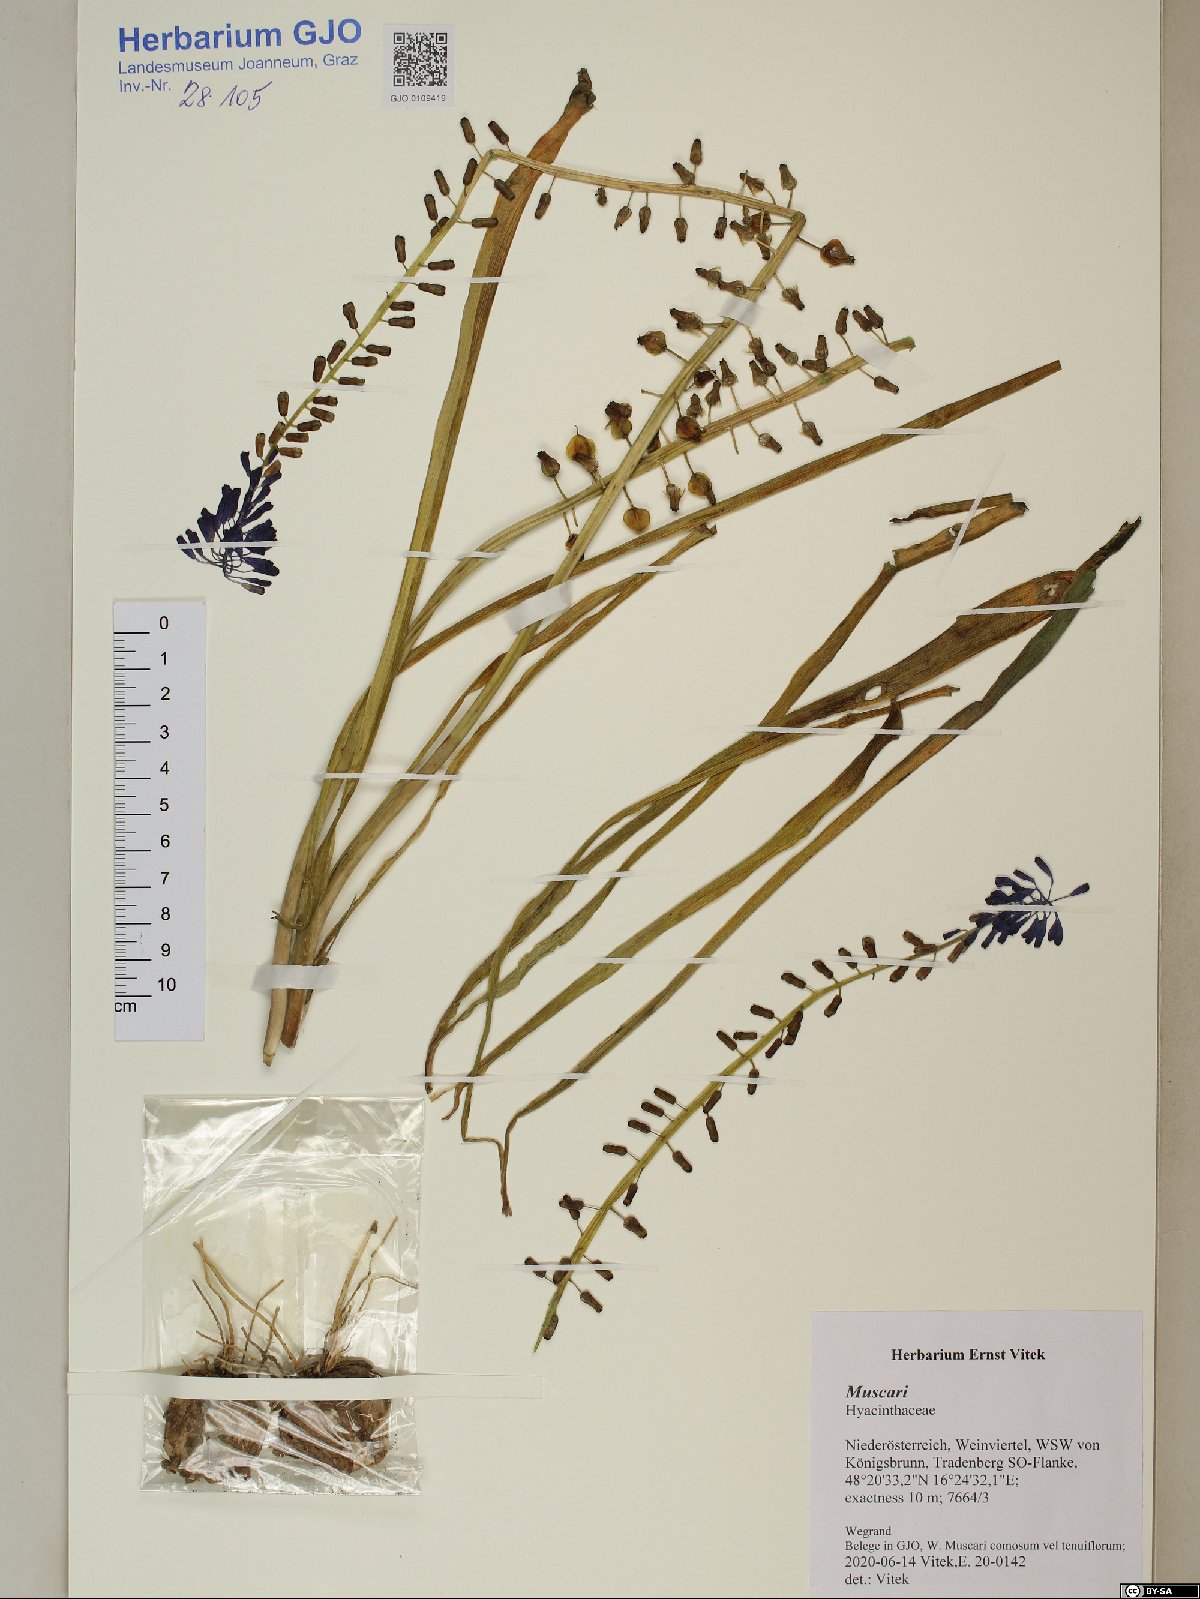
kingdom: Plantae
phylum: Tracheophyta
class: Liliopsida
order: Asparagales
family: Asparagaceae
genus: Muscari
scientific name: Muscari
